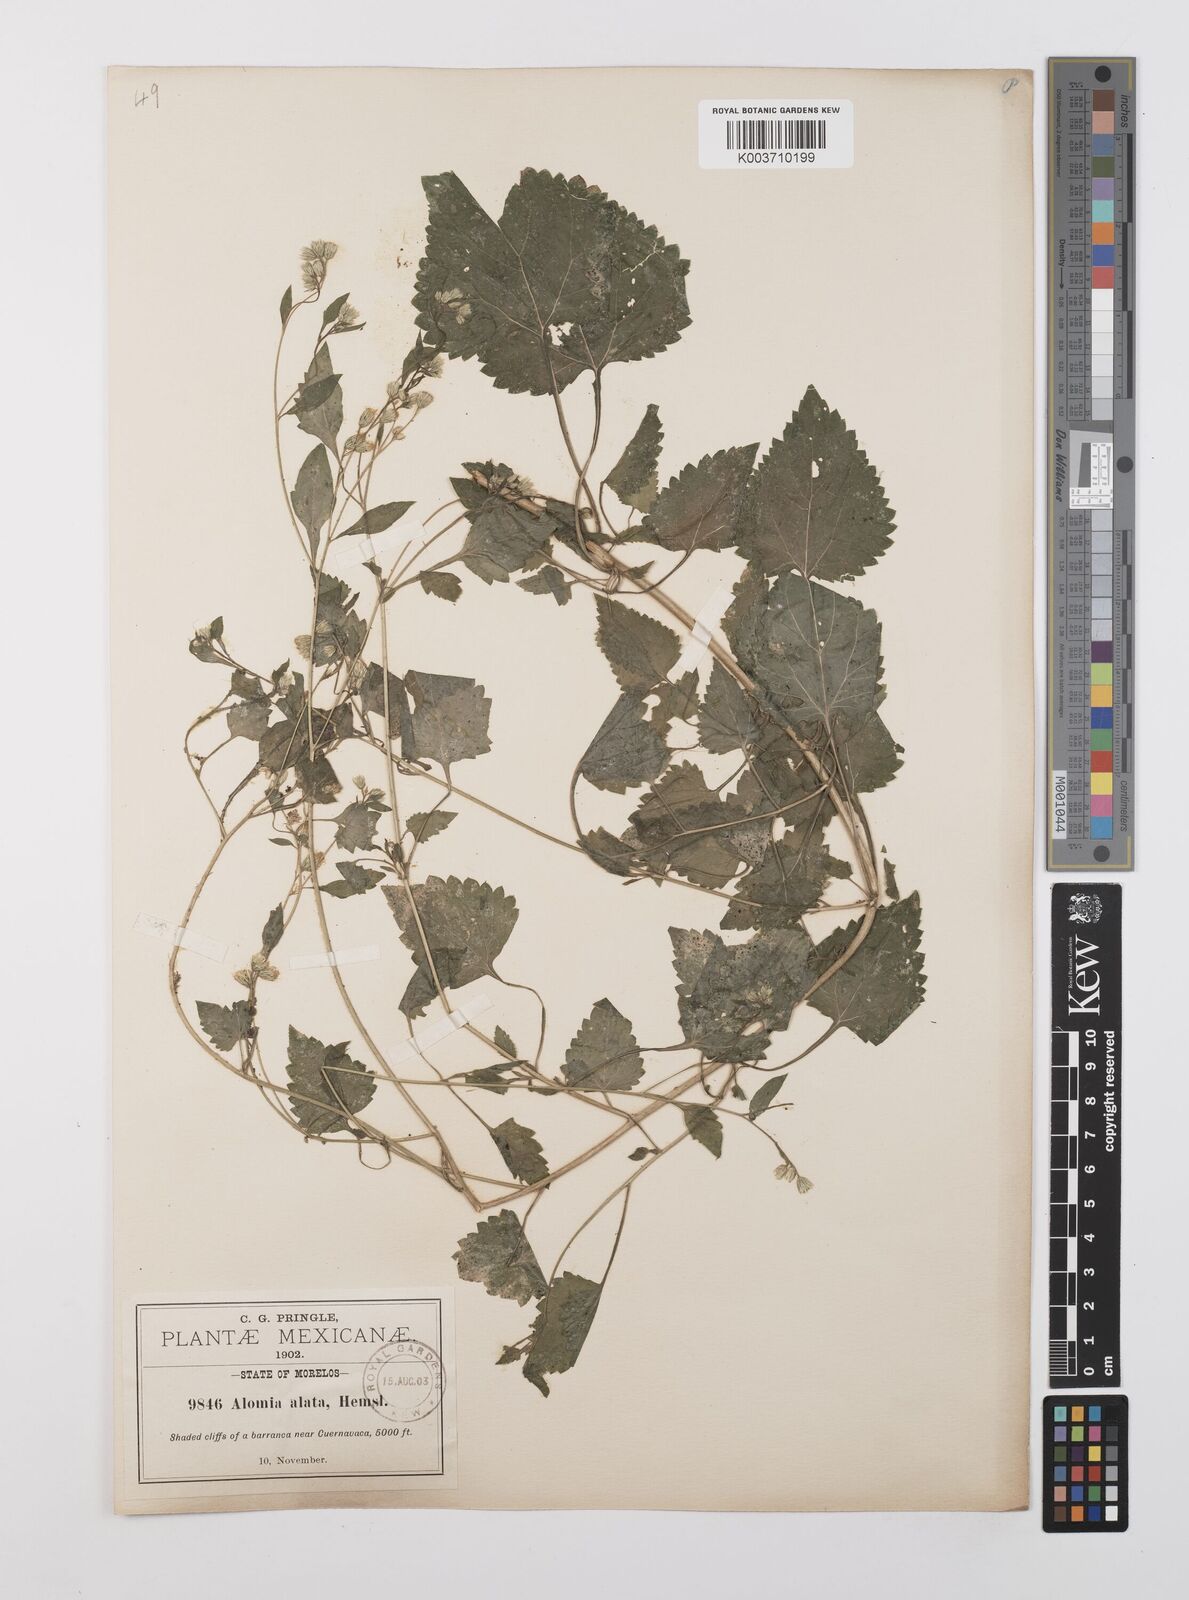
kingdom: Plantae
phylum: Tracheophyta
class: Magnoliopsida
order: Asterales
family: Asteraceae
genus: Alomia
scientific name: Alomia alata
